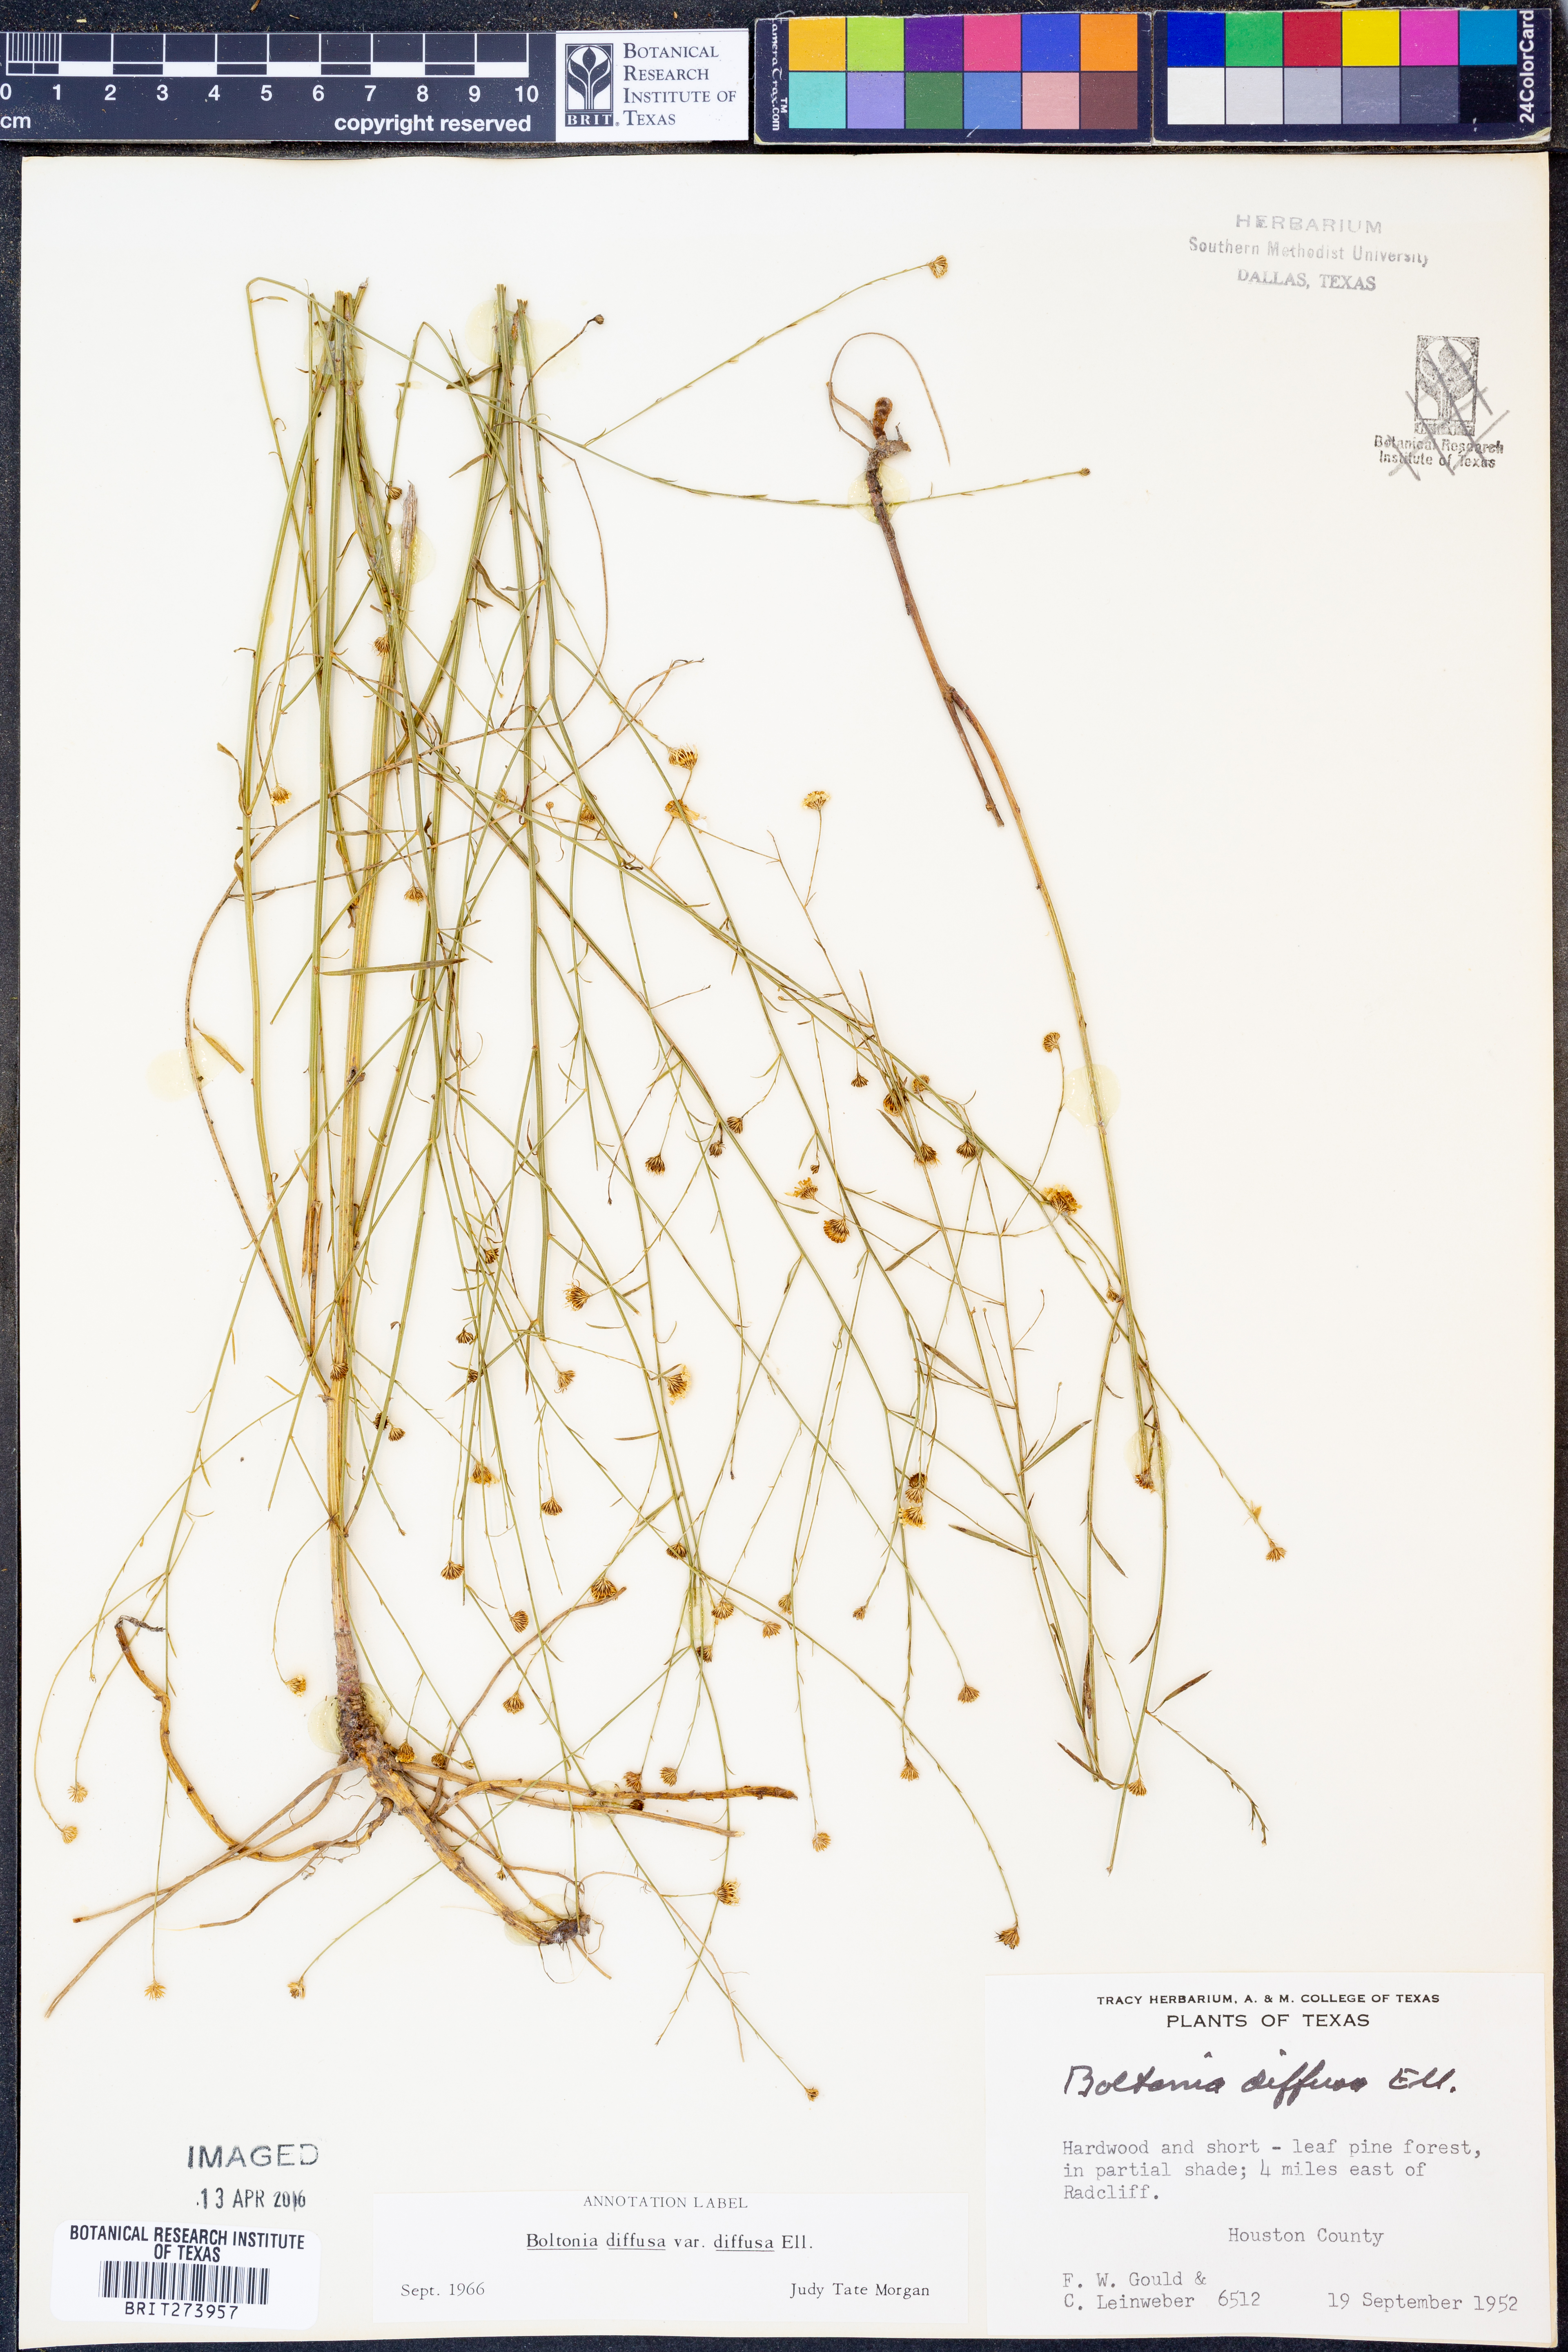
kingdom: Plantae
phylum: Tracheophyta
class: Magnoliopsida
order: Asterales
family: Asteraceae
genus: Boltonia
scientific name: Boltonia diffusa
